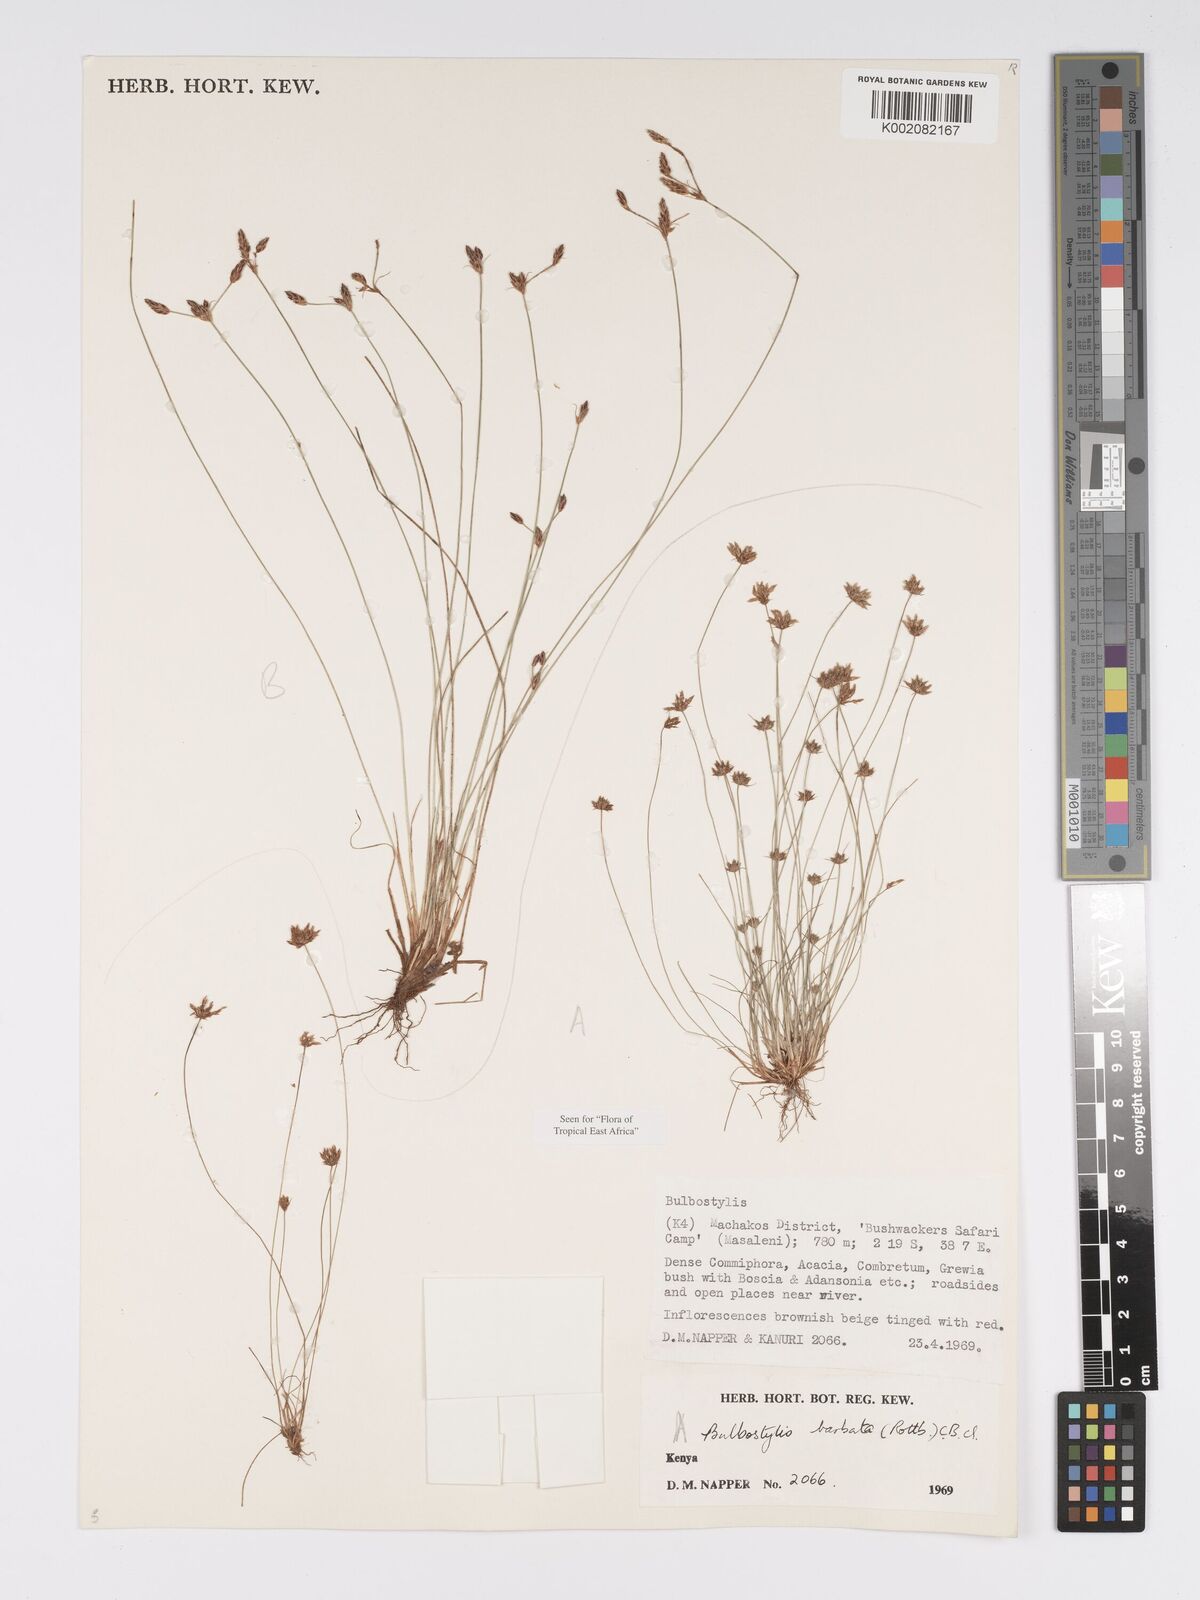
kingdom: Plantae
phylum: Tracheophyta
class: Liliopsida
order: Poales
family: Cyperaceae
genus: Bulbostylis
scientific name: Bulbostylis barbata
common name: Watergrass
